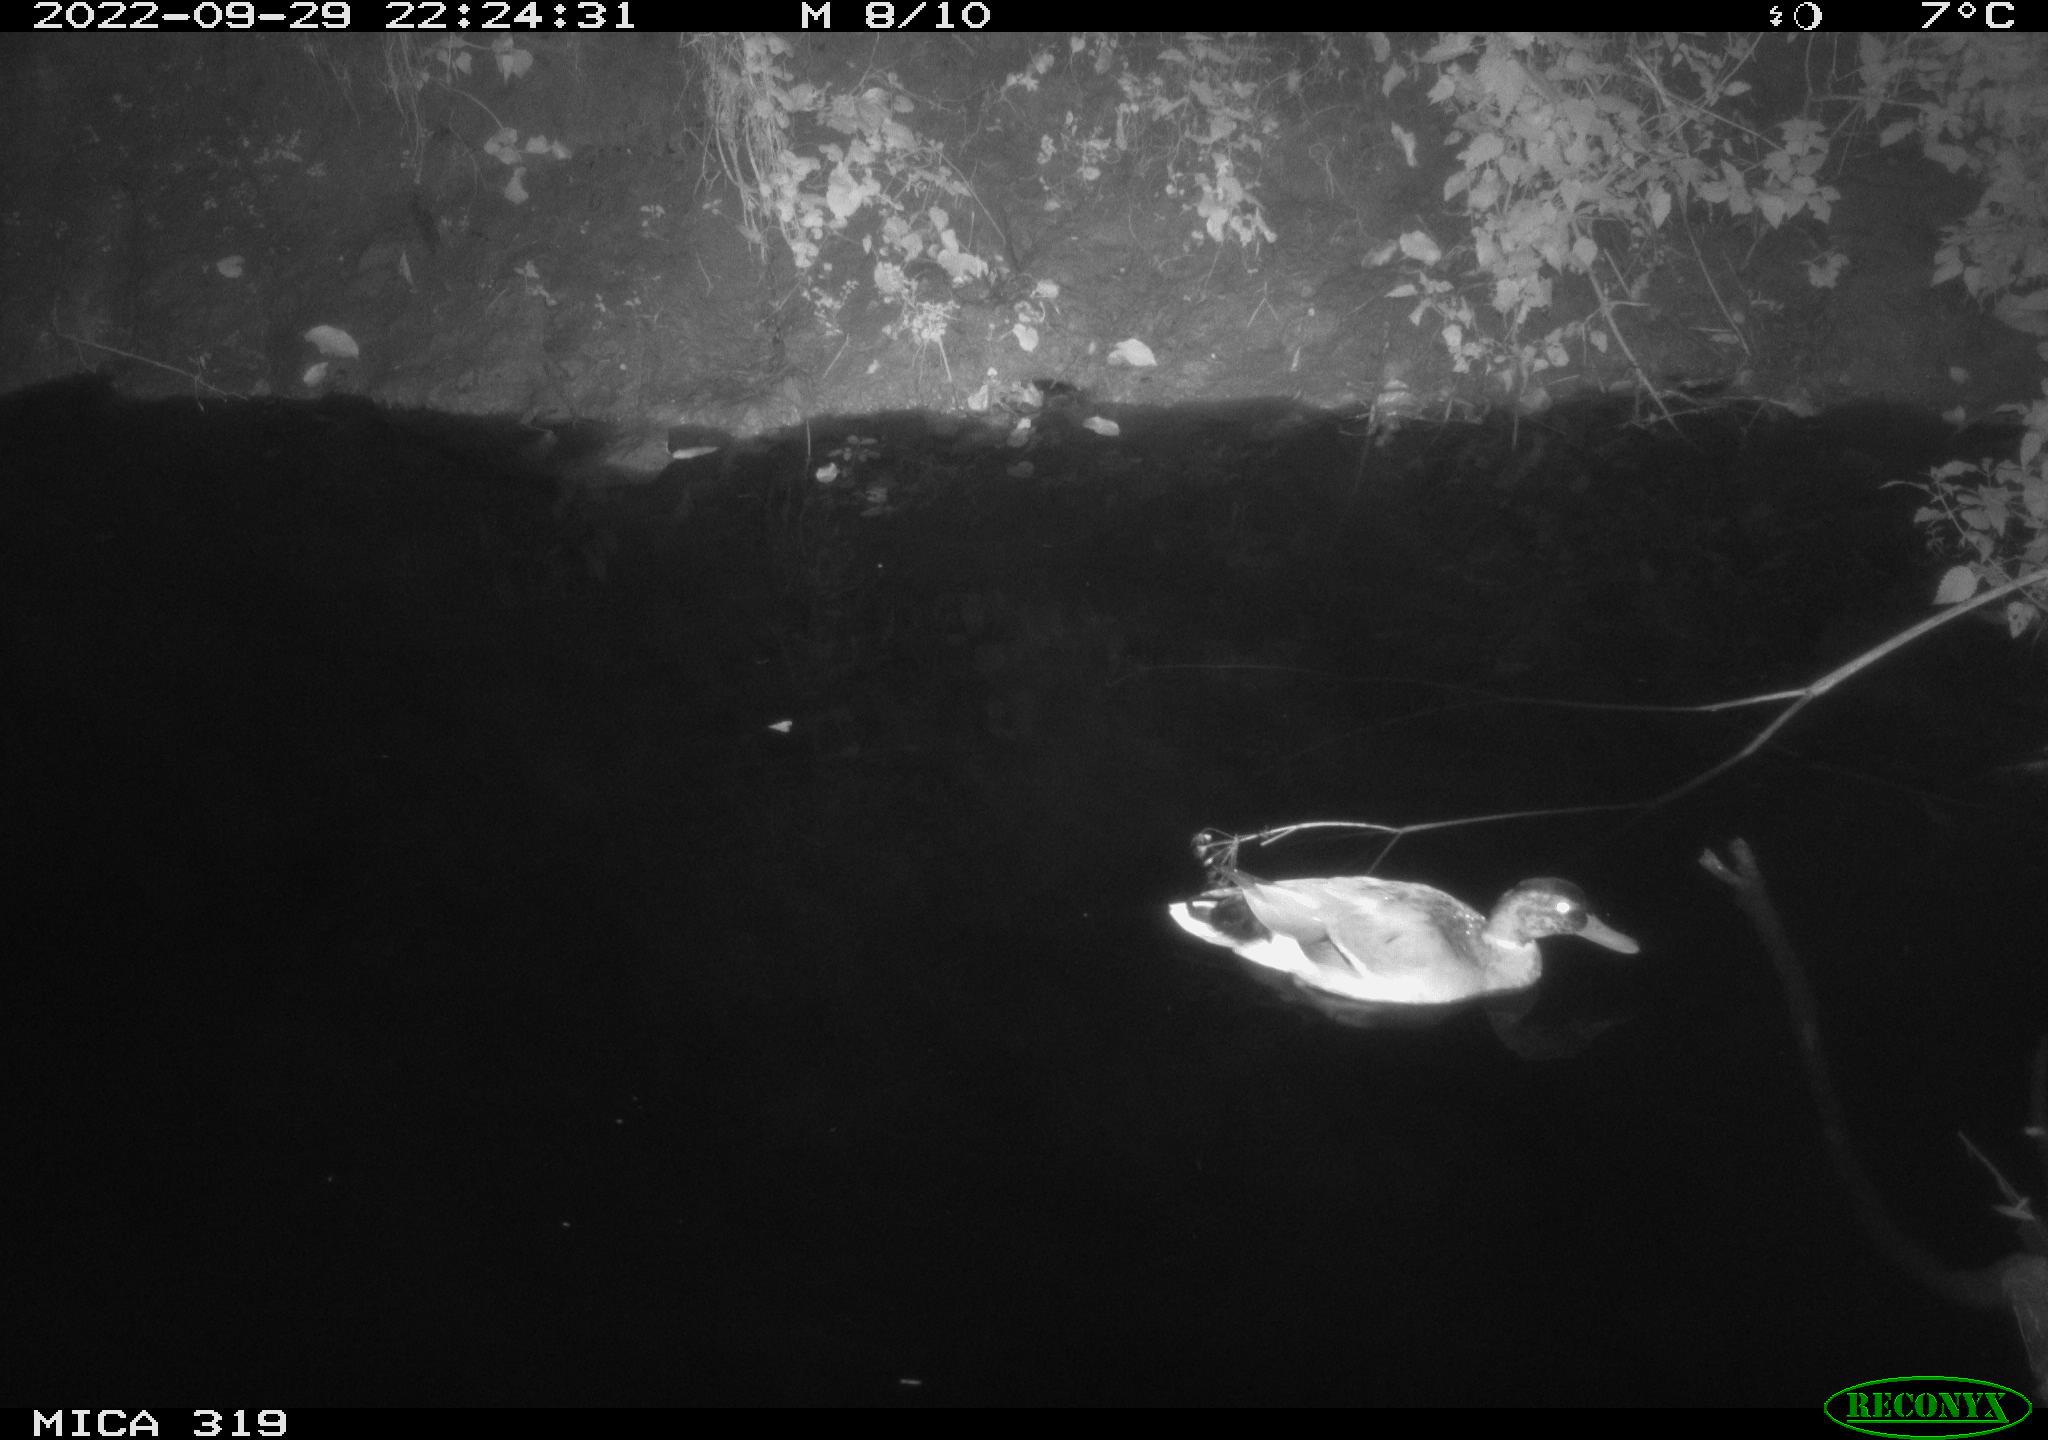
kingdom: Animalia
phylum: Chordata
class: Aves
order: Anseriformes
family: Anatidae
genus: Anas
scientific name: Anas
